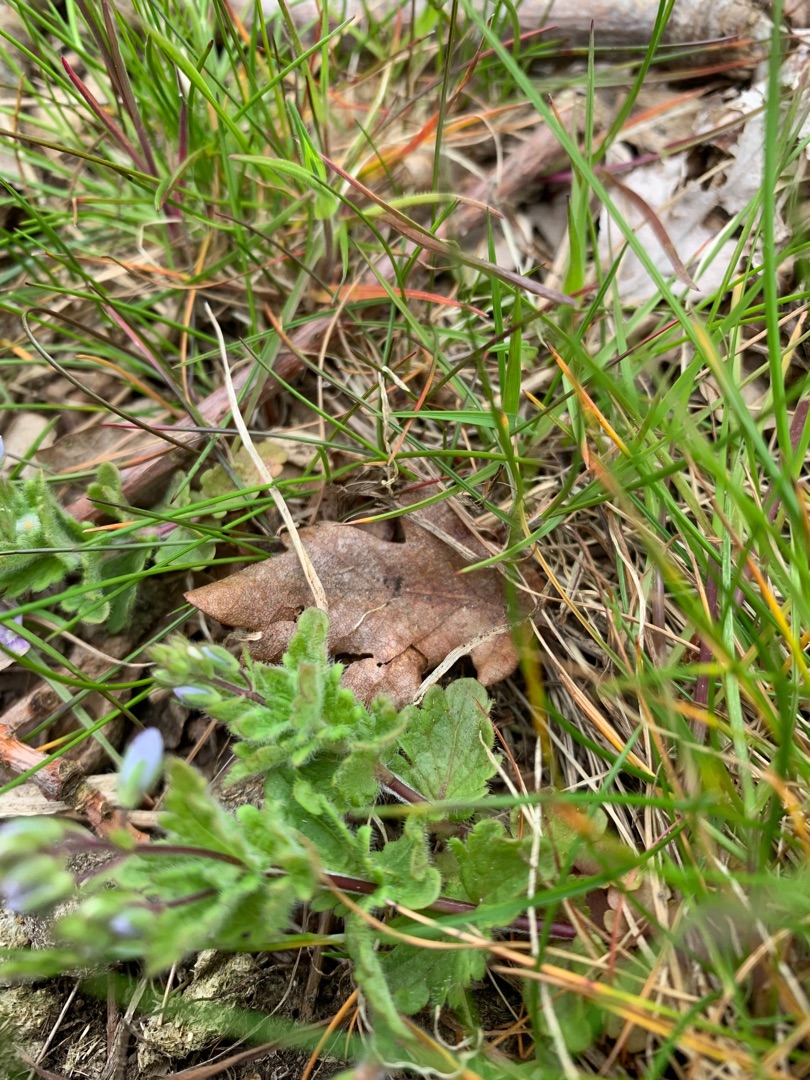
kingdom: Plantae
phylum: Tracheophyta
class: Magnoliopsida
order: Lamiales
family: Plantaginaceae
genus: Veronica
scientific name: Veronica chamaedrys
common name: Tveskægget ærenpris
